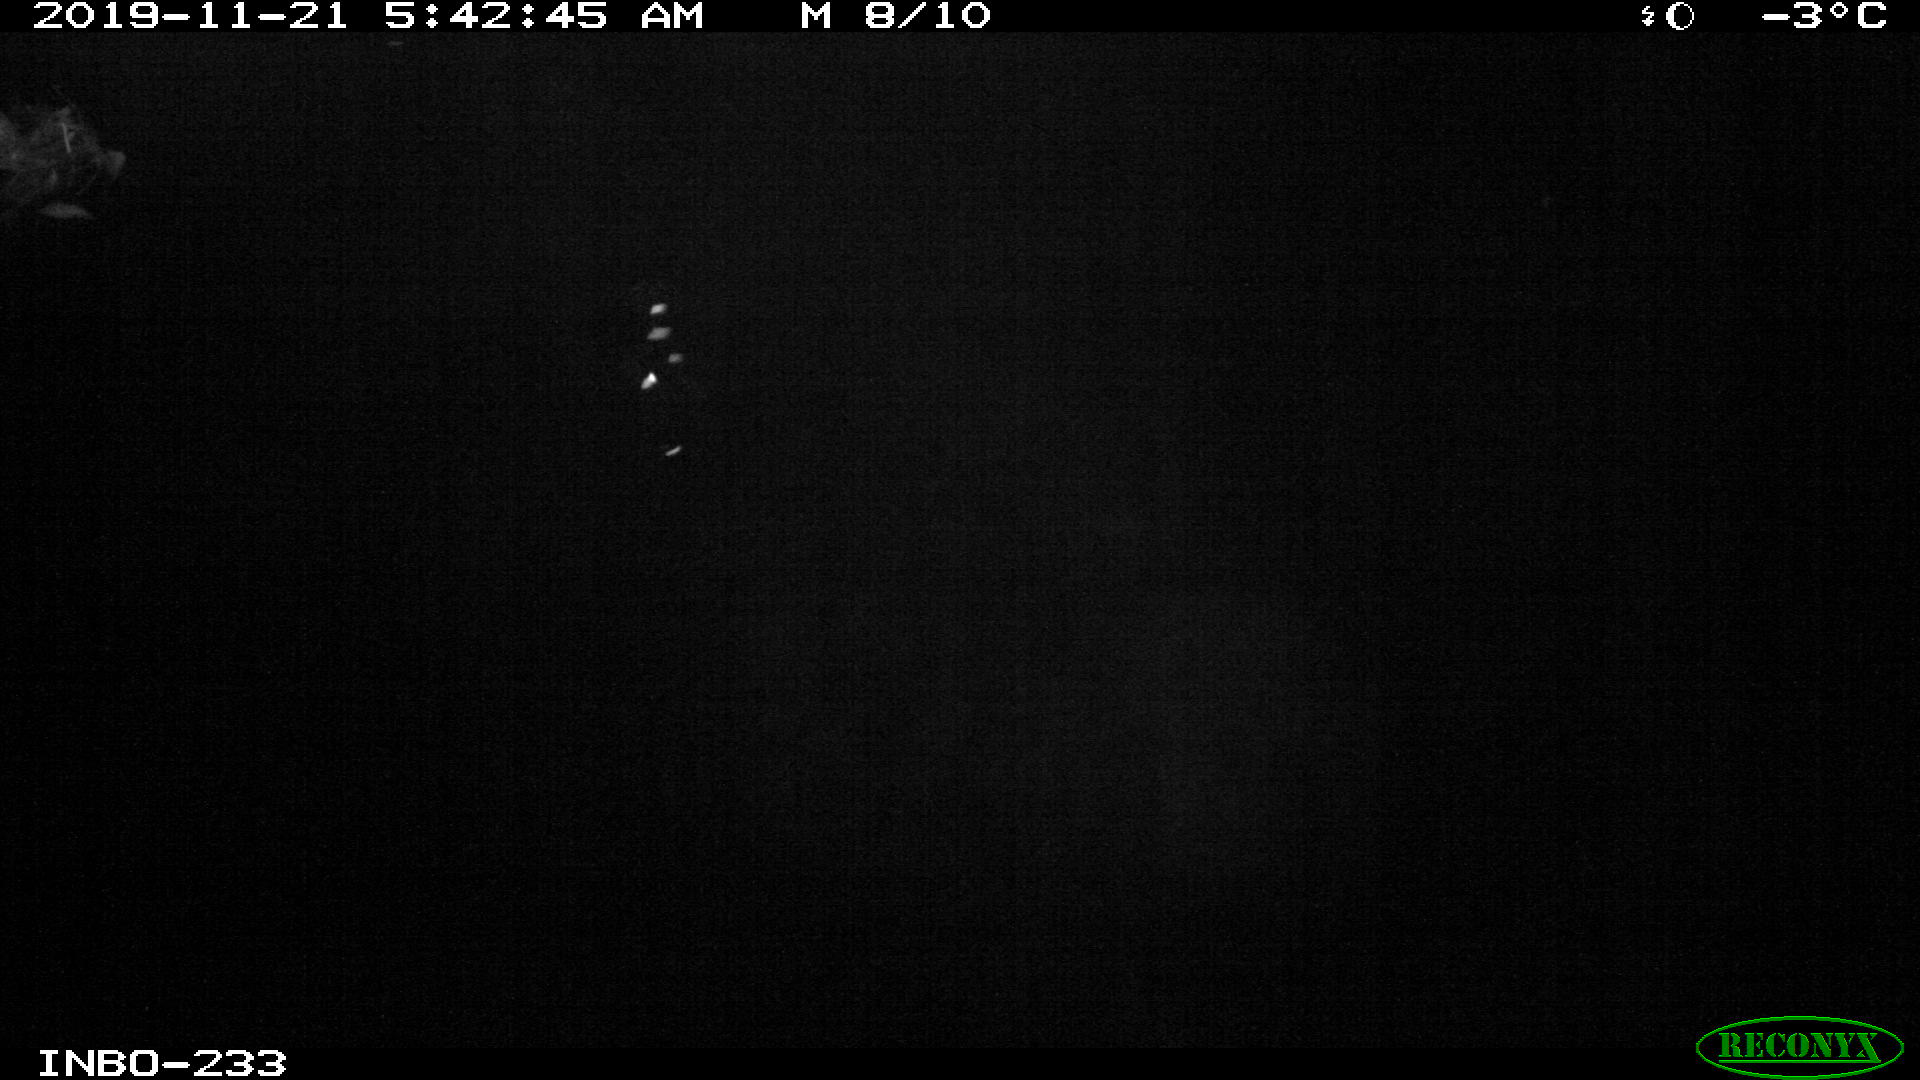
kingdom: Animalia
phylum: Chordata
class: Aves
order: Anseriformes
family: Anatidae
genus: Anas
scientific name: Anas platyrhynchos
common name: Mallard
